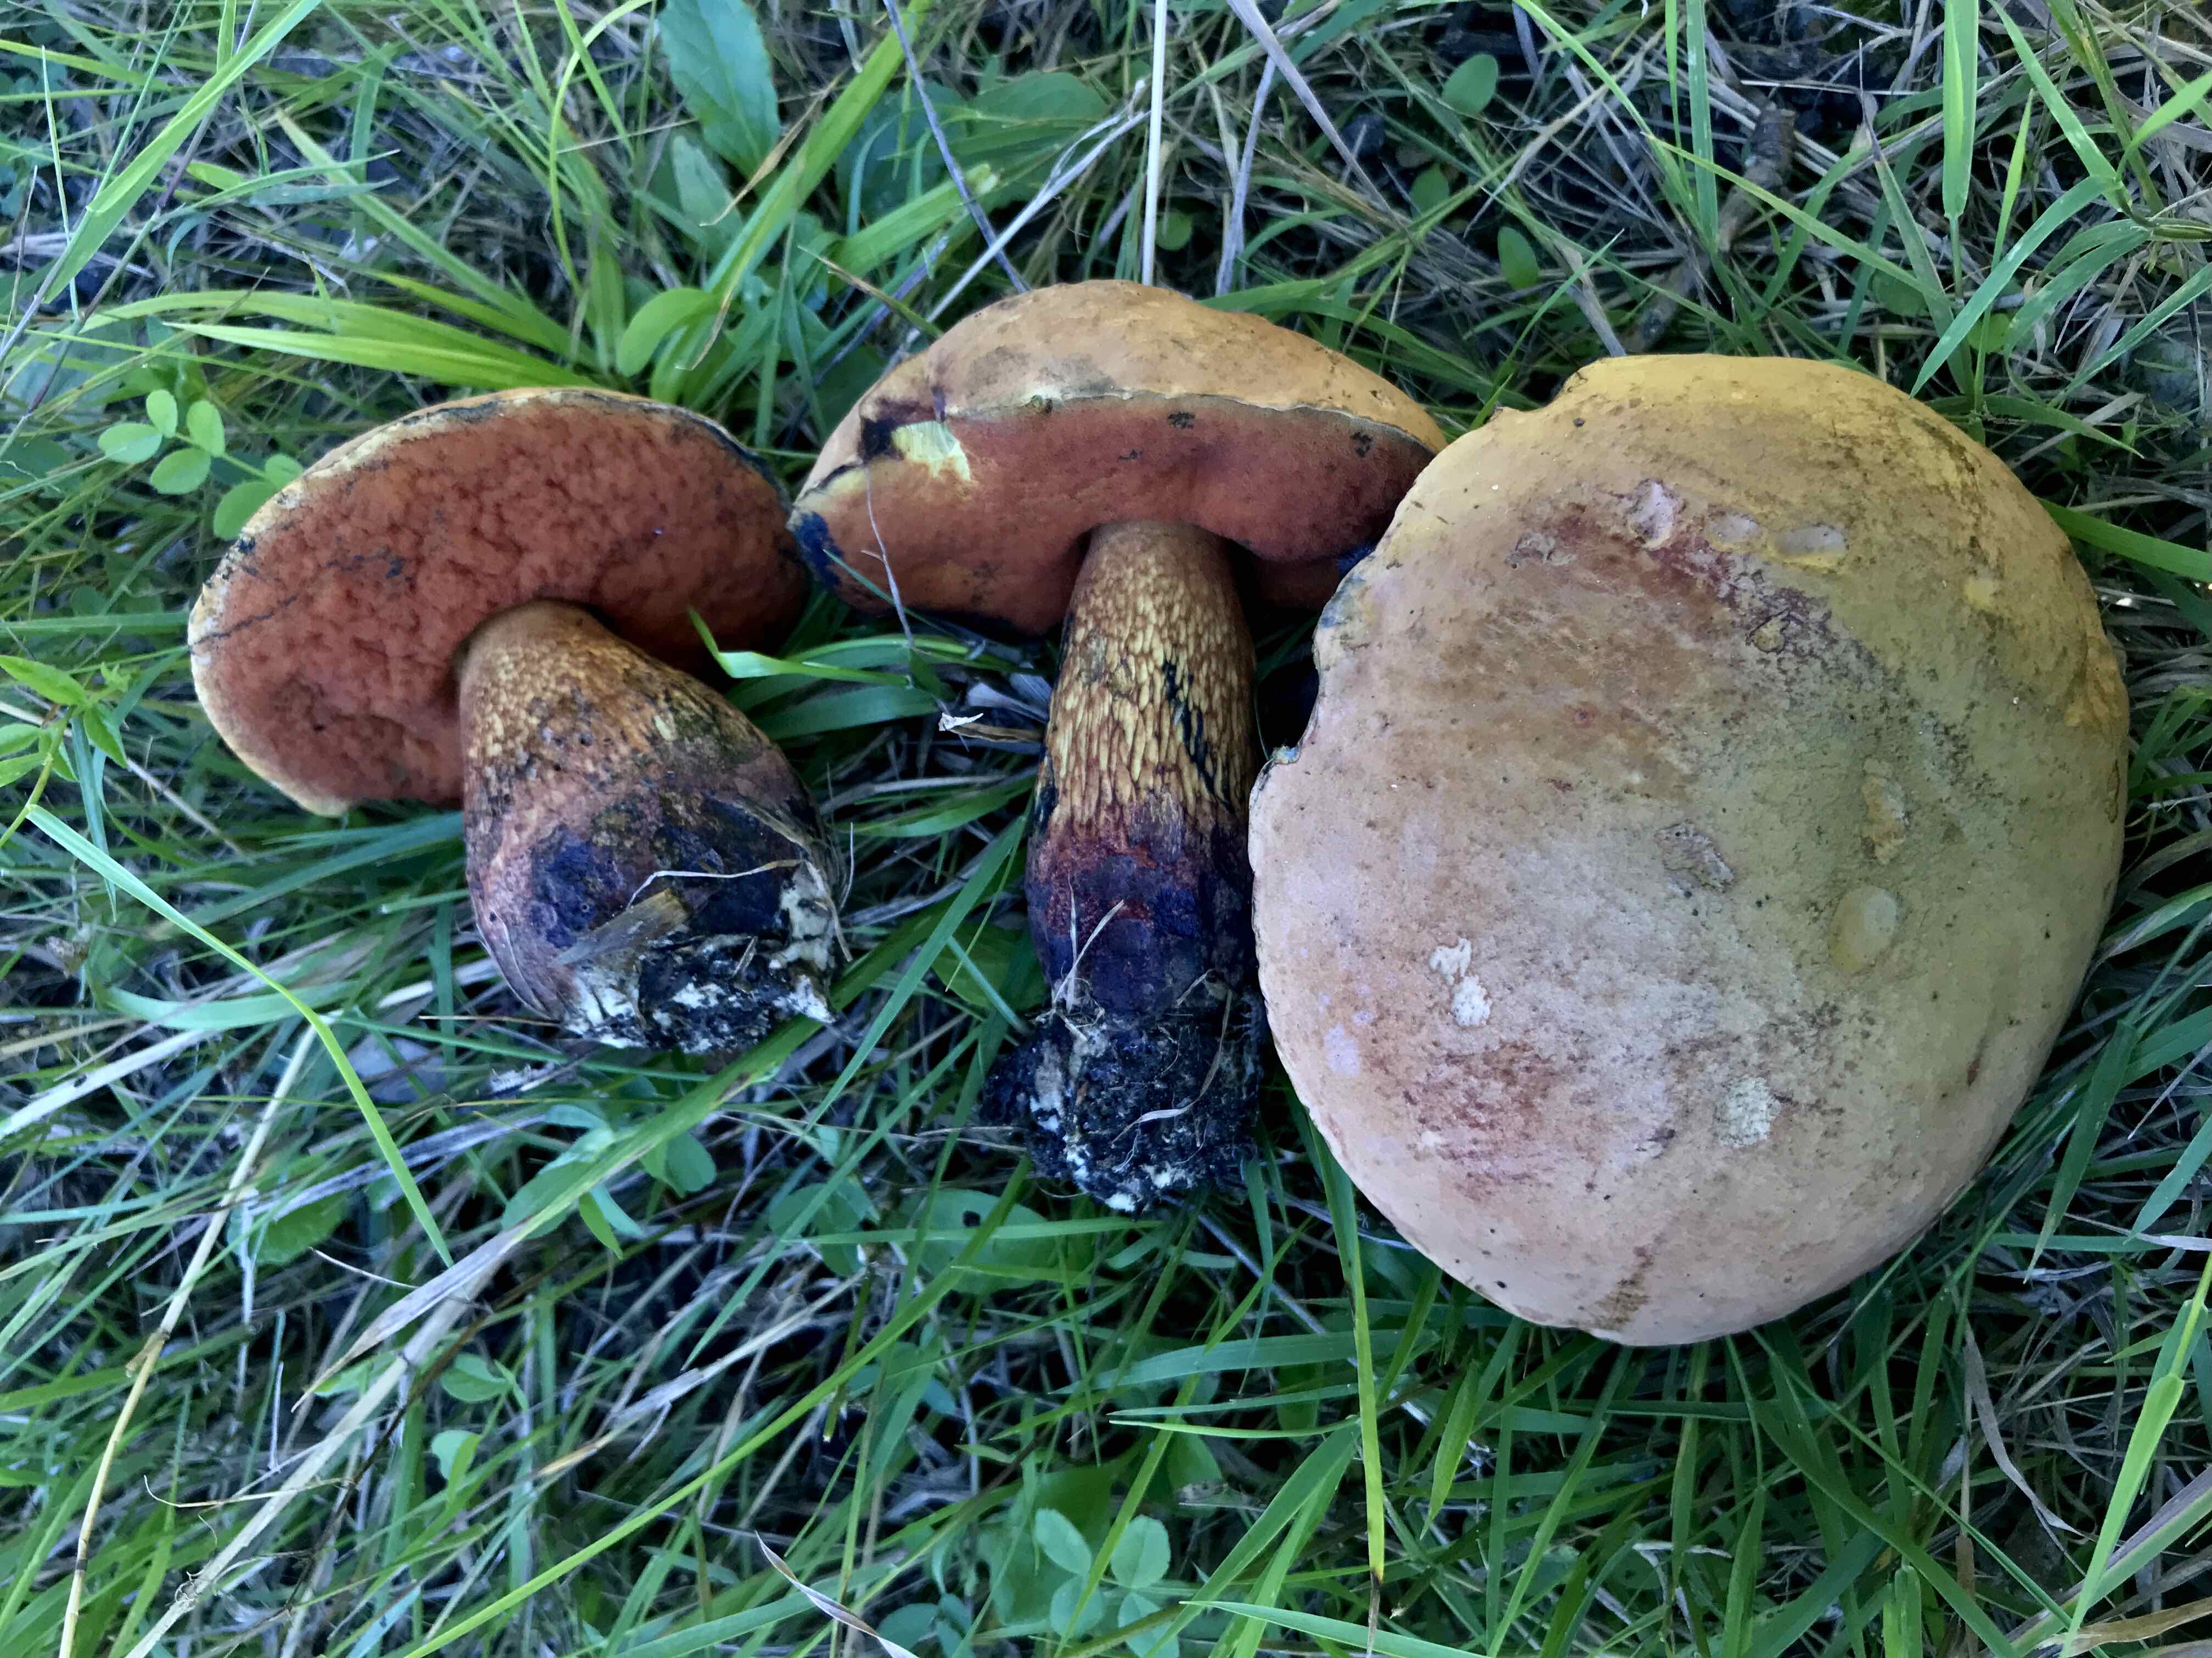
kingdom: Fungi
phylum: Basidiomycota
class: Agaricomycetes
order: Boletales
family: Boletaceae
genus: Suillellus
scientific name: Suillellus luridus
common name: netstokket indigorørhat
